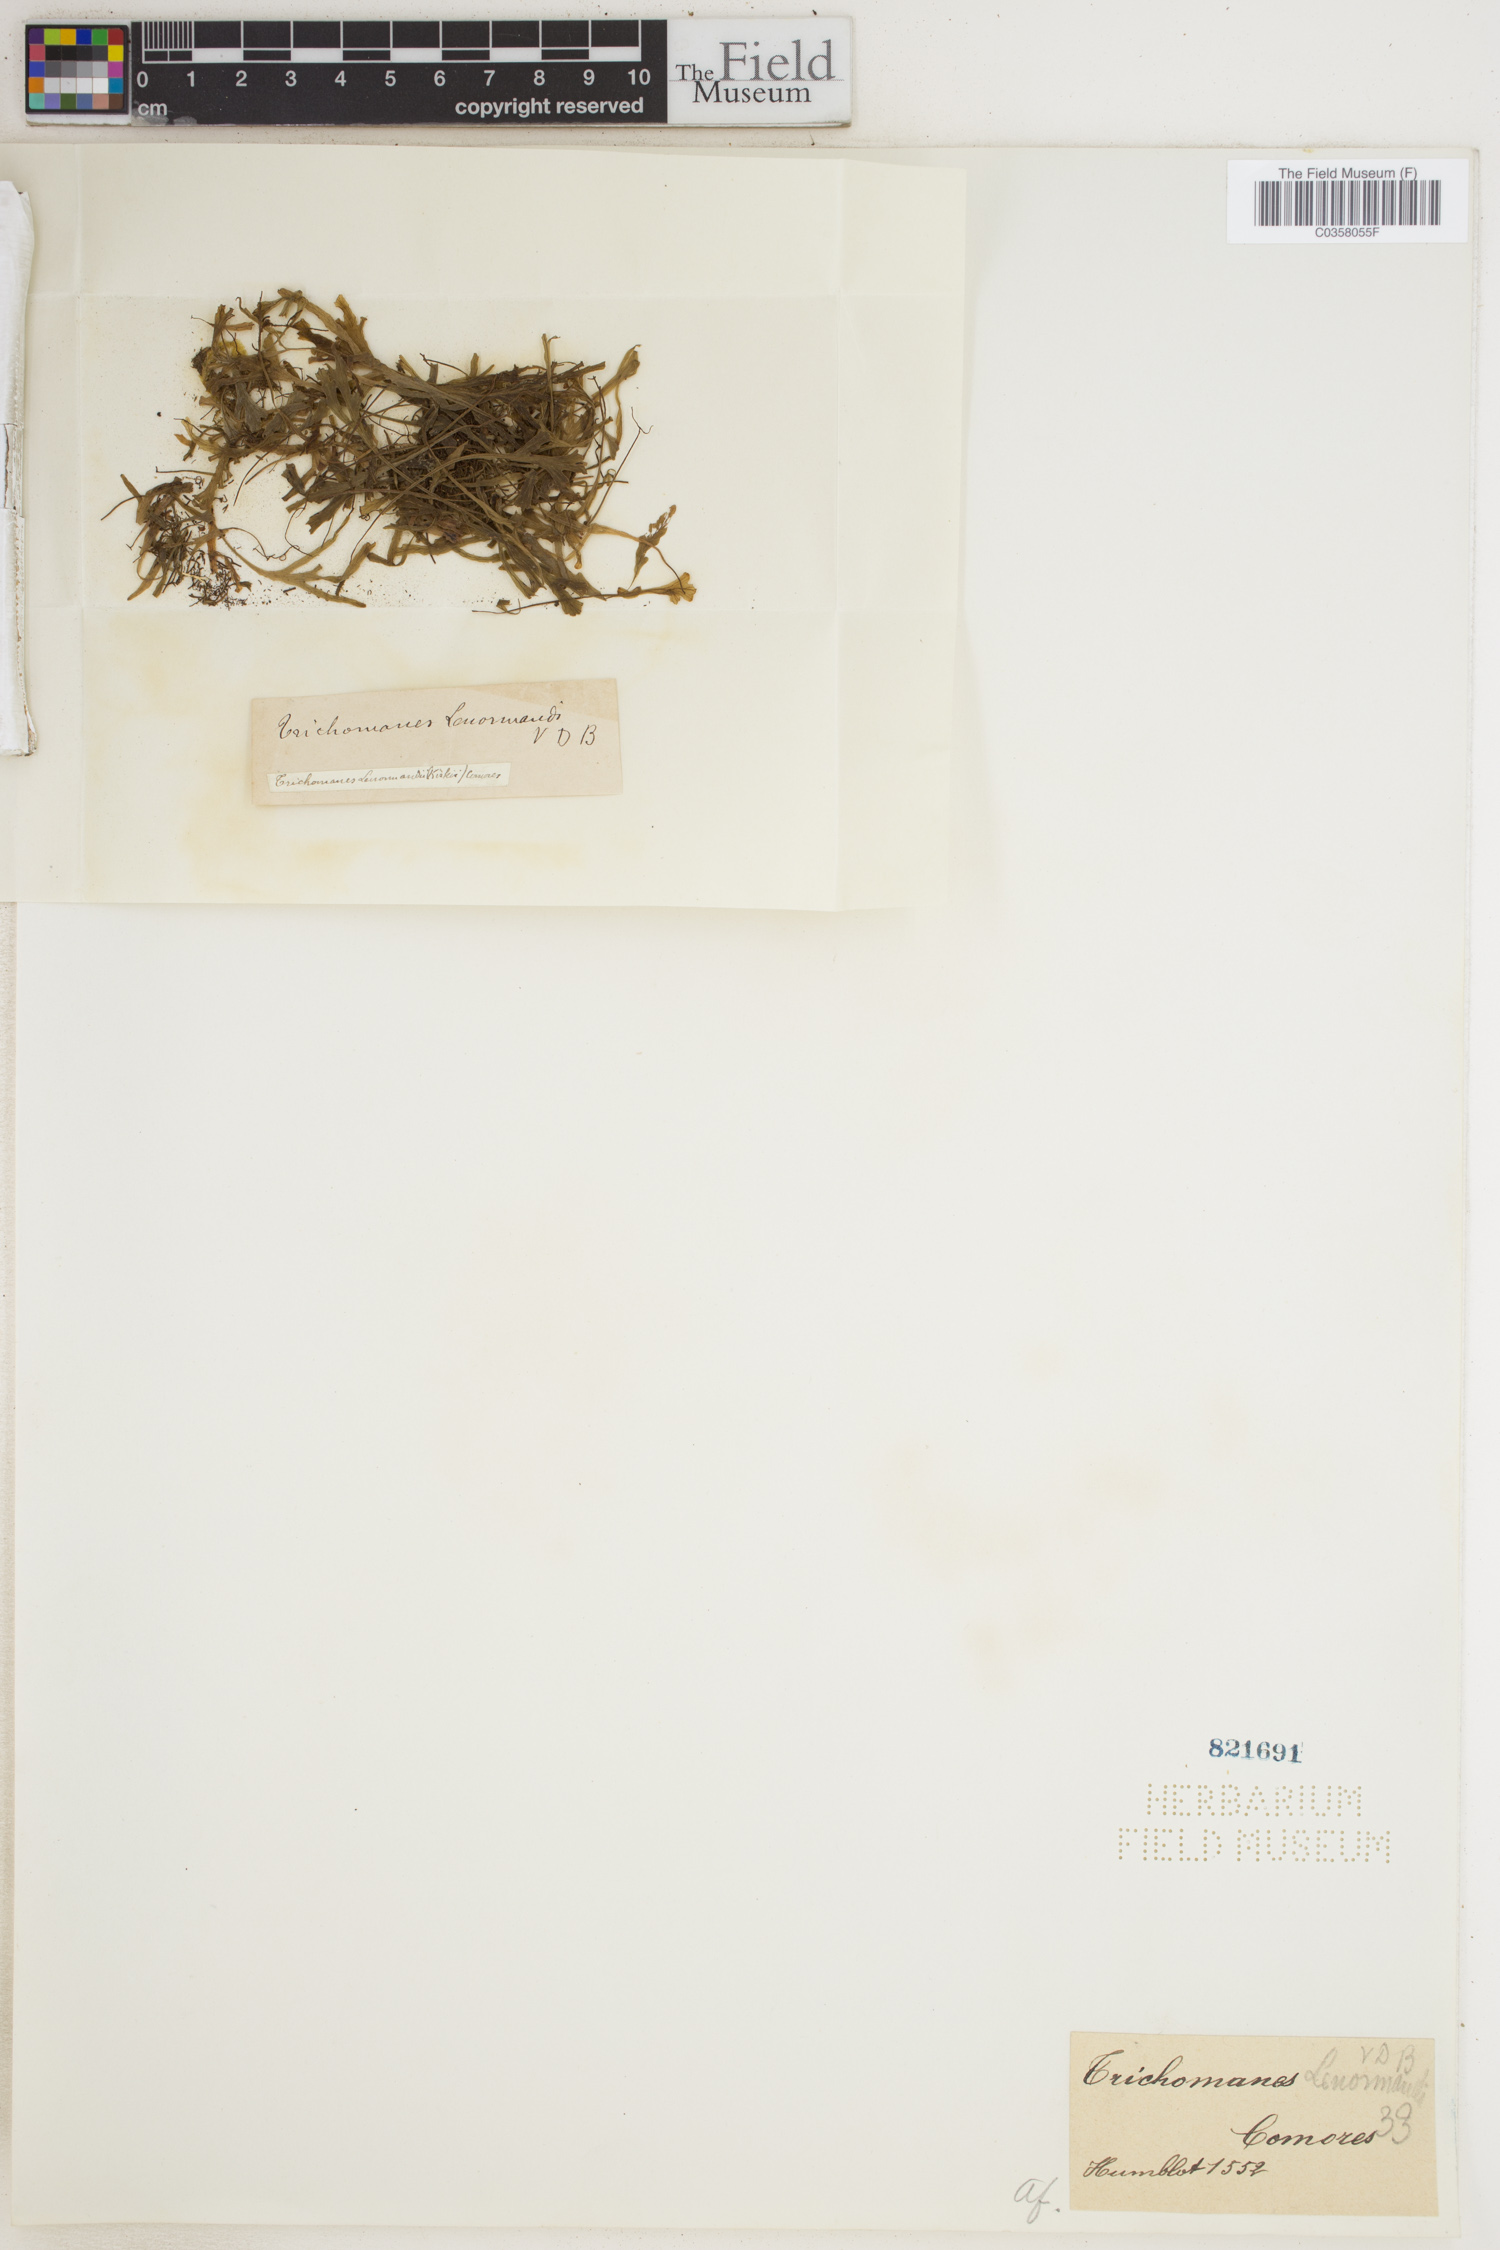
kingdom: Plantae
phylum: Tracheophyta
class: Polypodiopsida
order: Hymenophyllales
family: Hymenophyllaceae
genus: Didymoglossum
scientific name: Didymoglossum lenormandii
